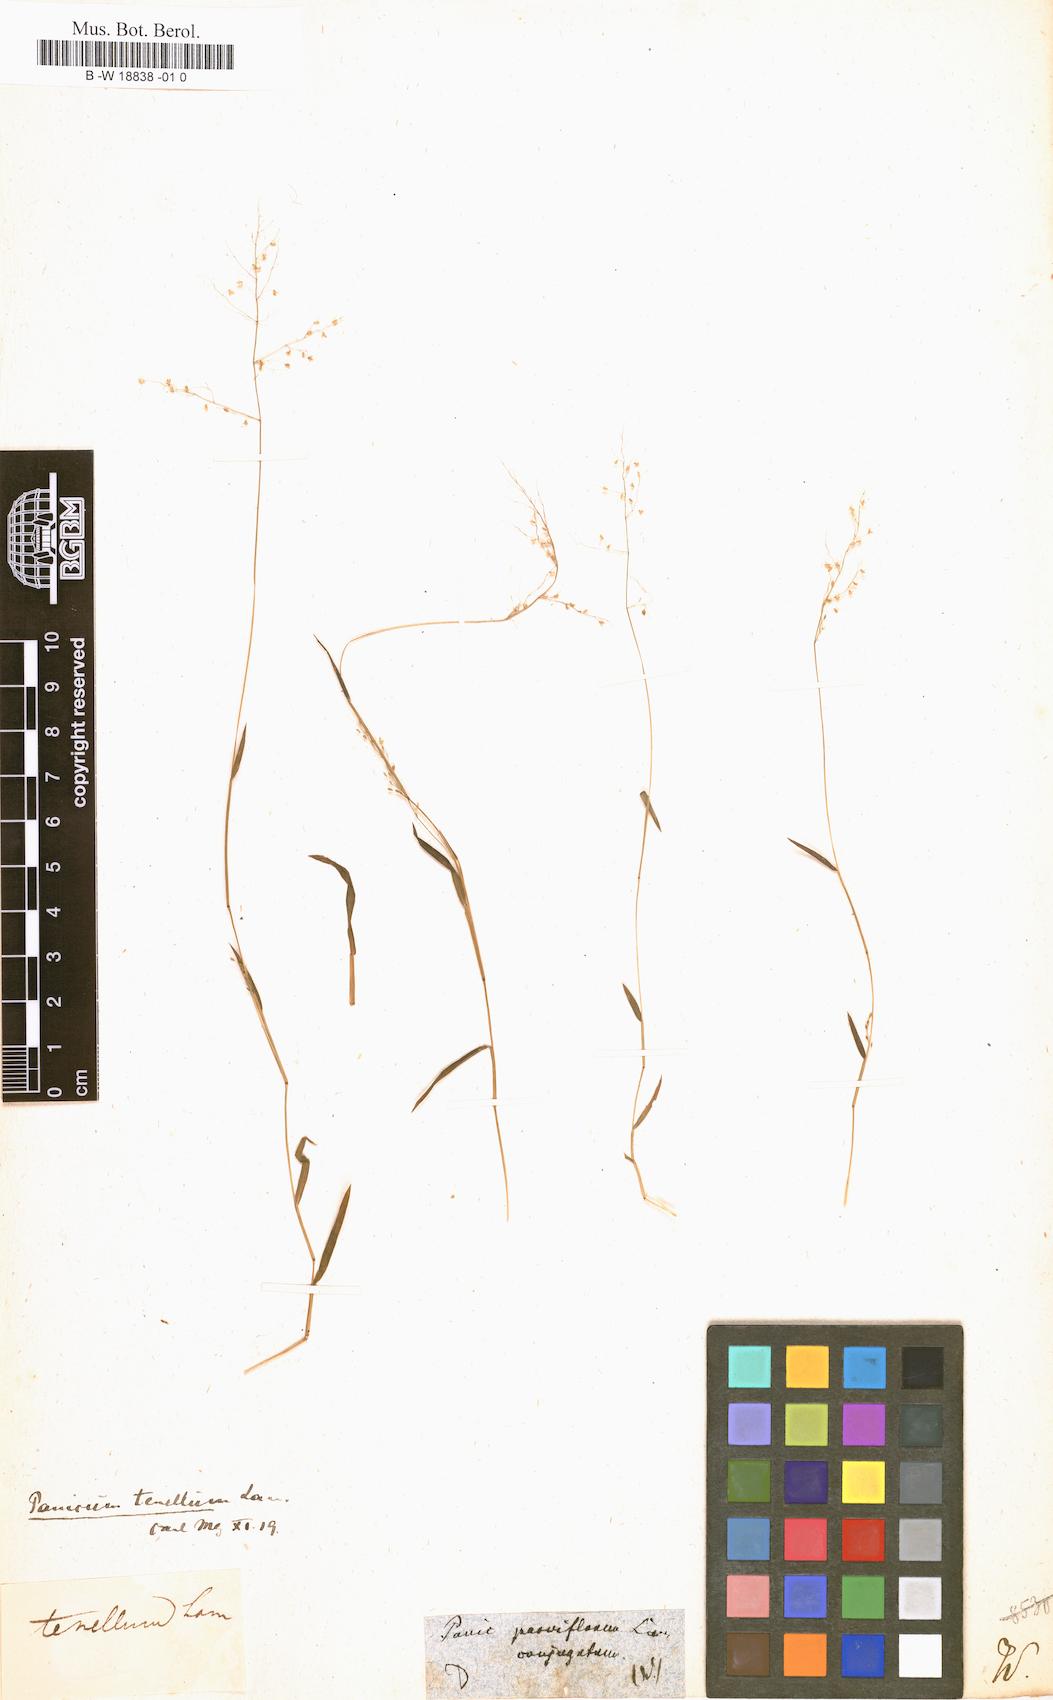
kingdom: Plantae
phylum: Tracheophyta
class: Liliopsida
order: Poales
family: Poaceae
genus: Digitaria
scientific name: Digitaria parviflora
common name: Small-flower finger grass
